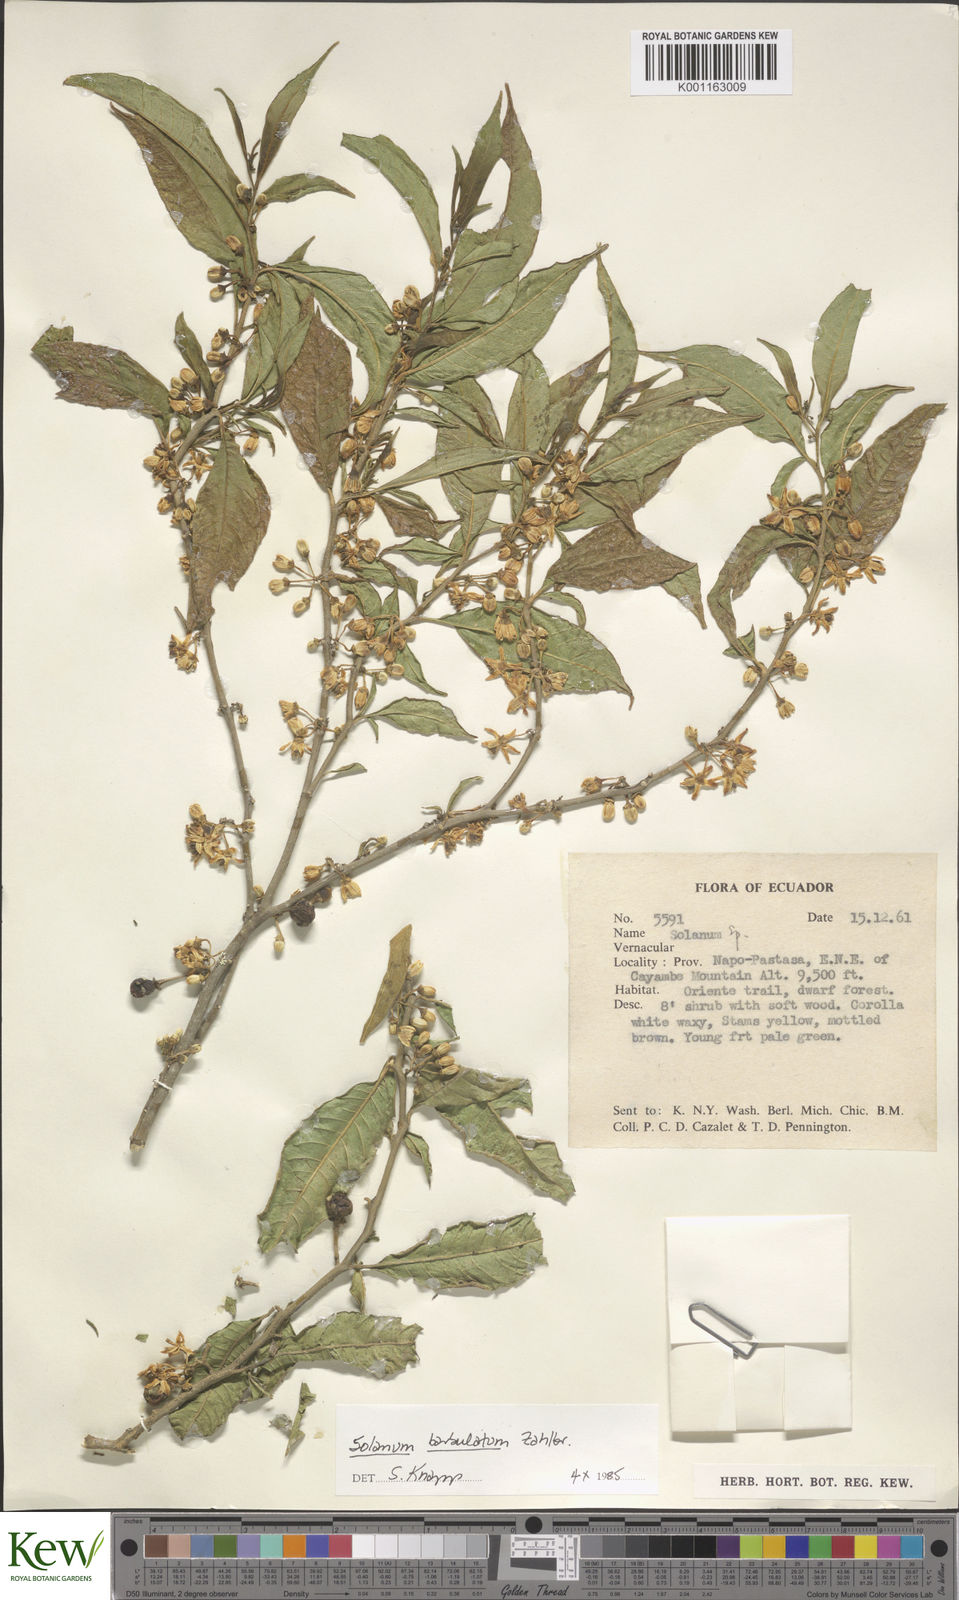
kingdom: Plantae
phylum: Tracheophyta
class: Magnoliopsida
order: Solanales
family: Solanaceae
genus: Solanum
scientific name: Solanum barbulatum
